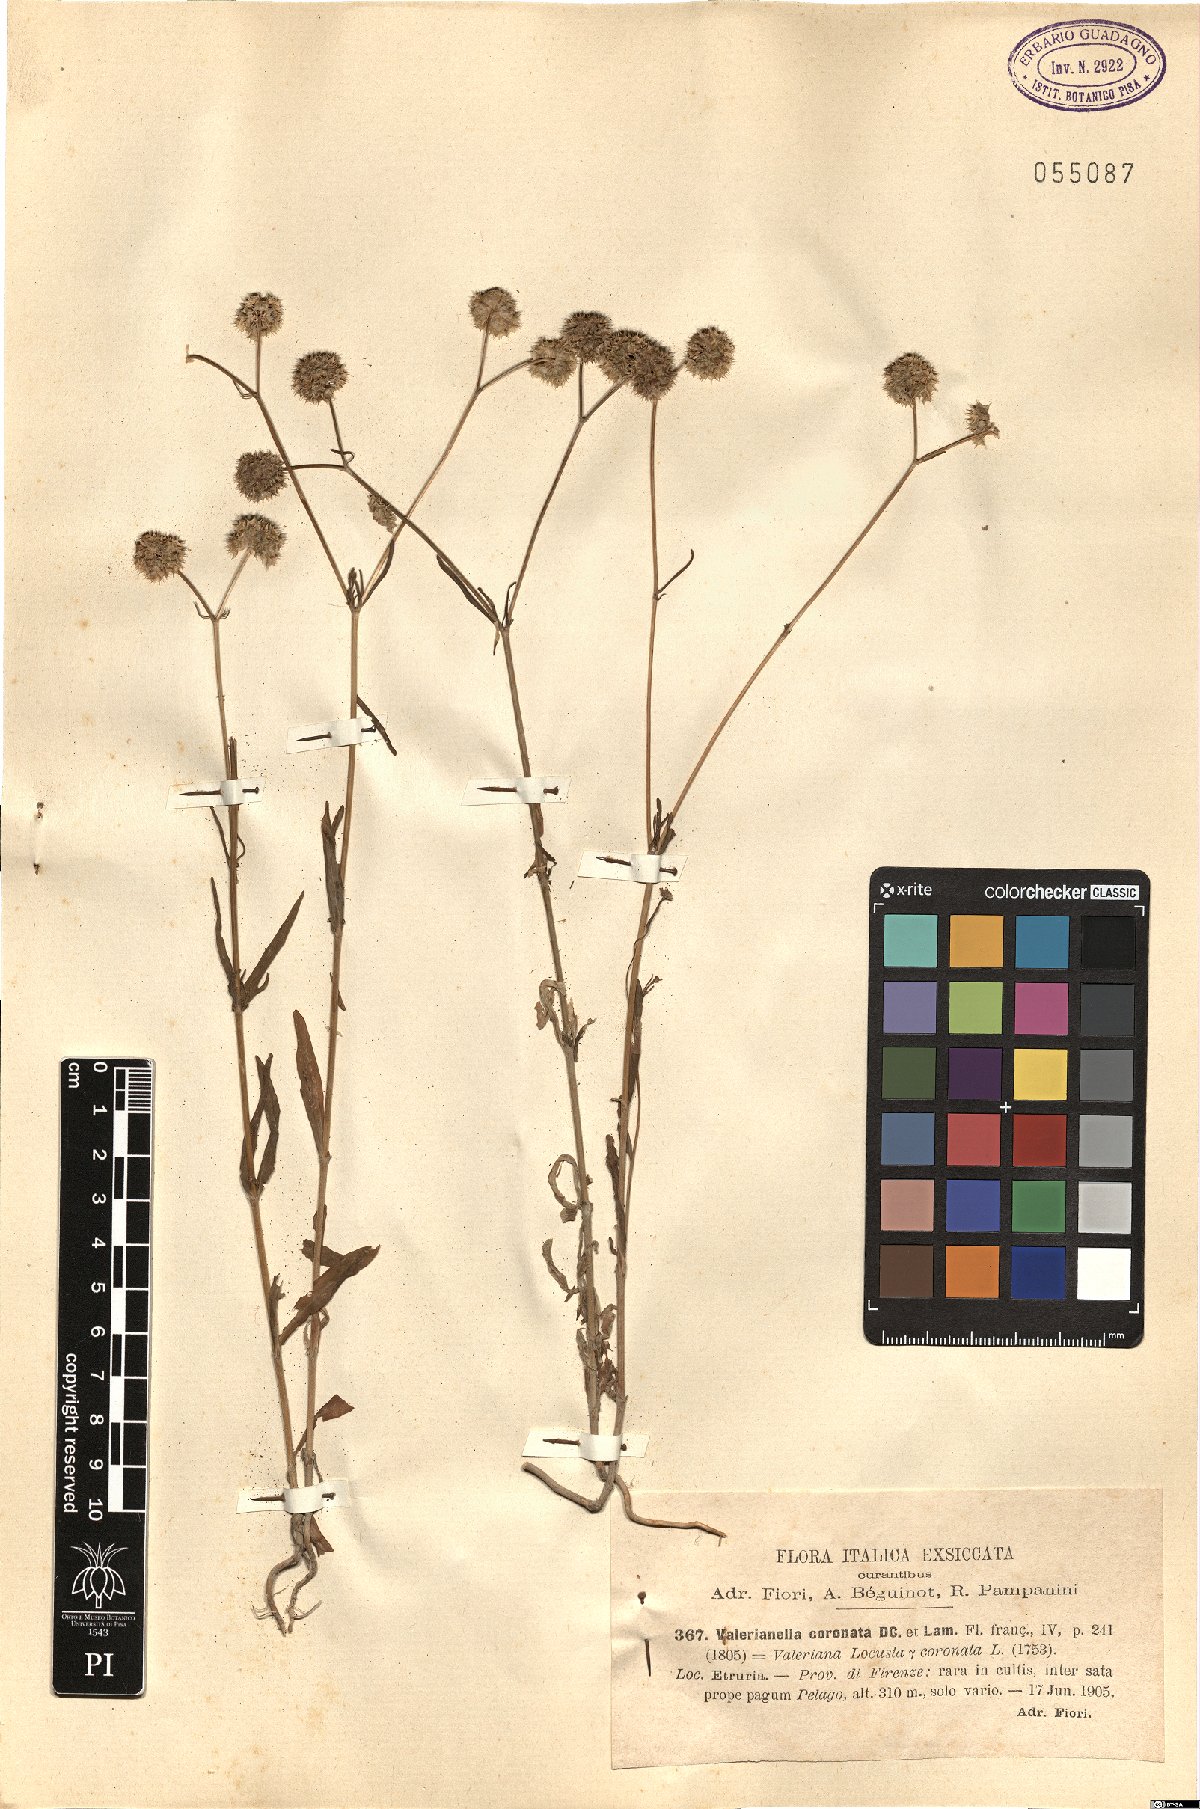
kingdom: Plantae
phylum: Tracheophyta
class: Magnoliopsida
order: Dipsacales
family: Caprifoliaceae
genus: Valerianella
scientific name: Valerianella coronata
